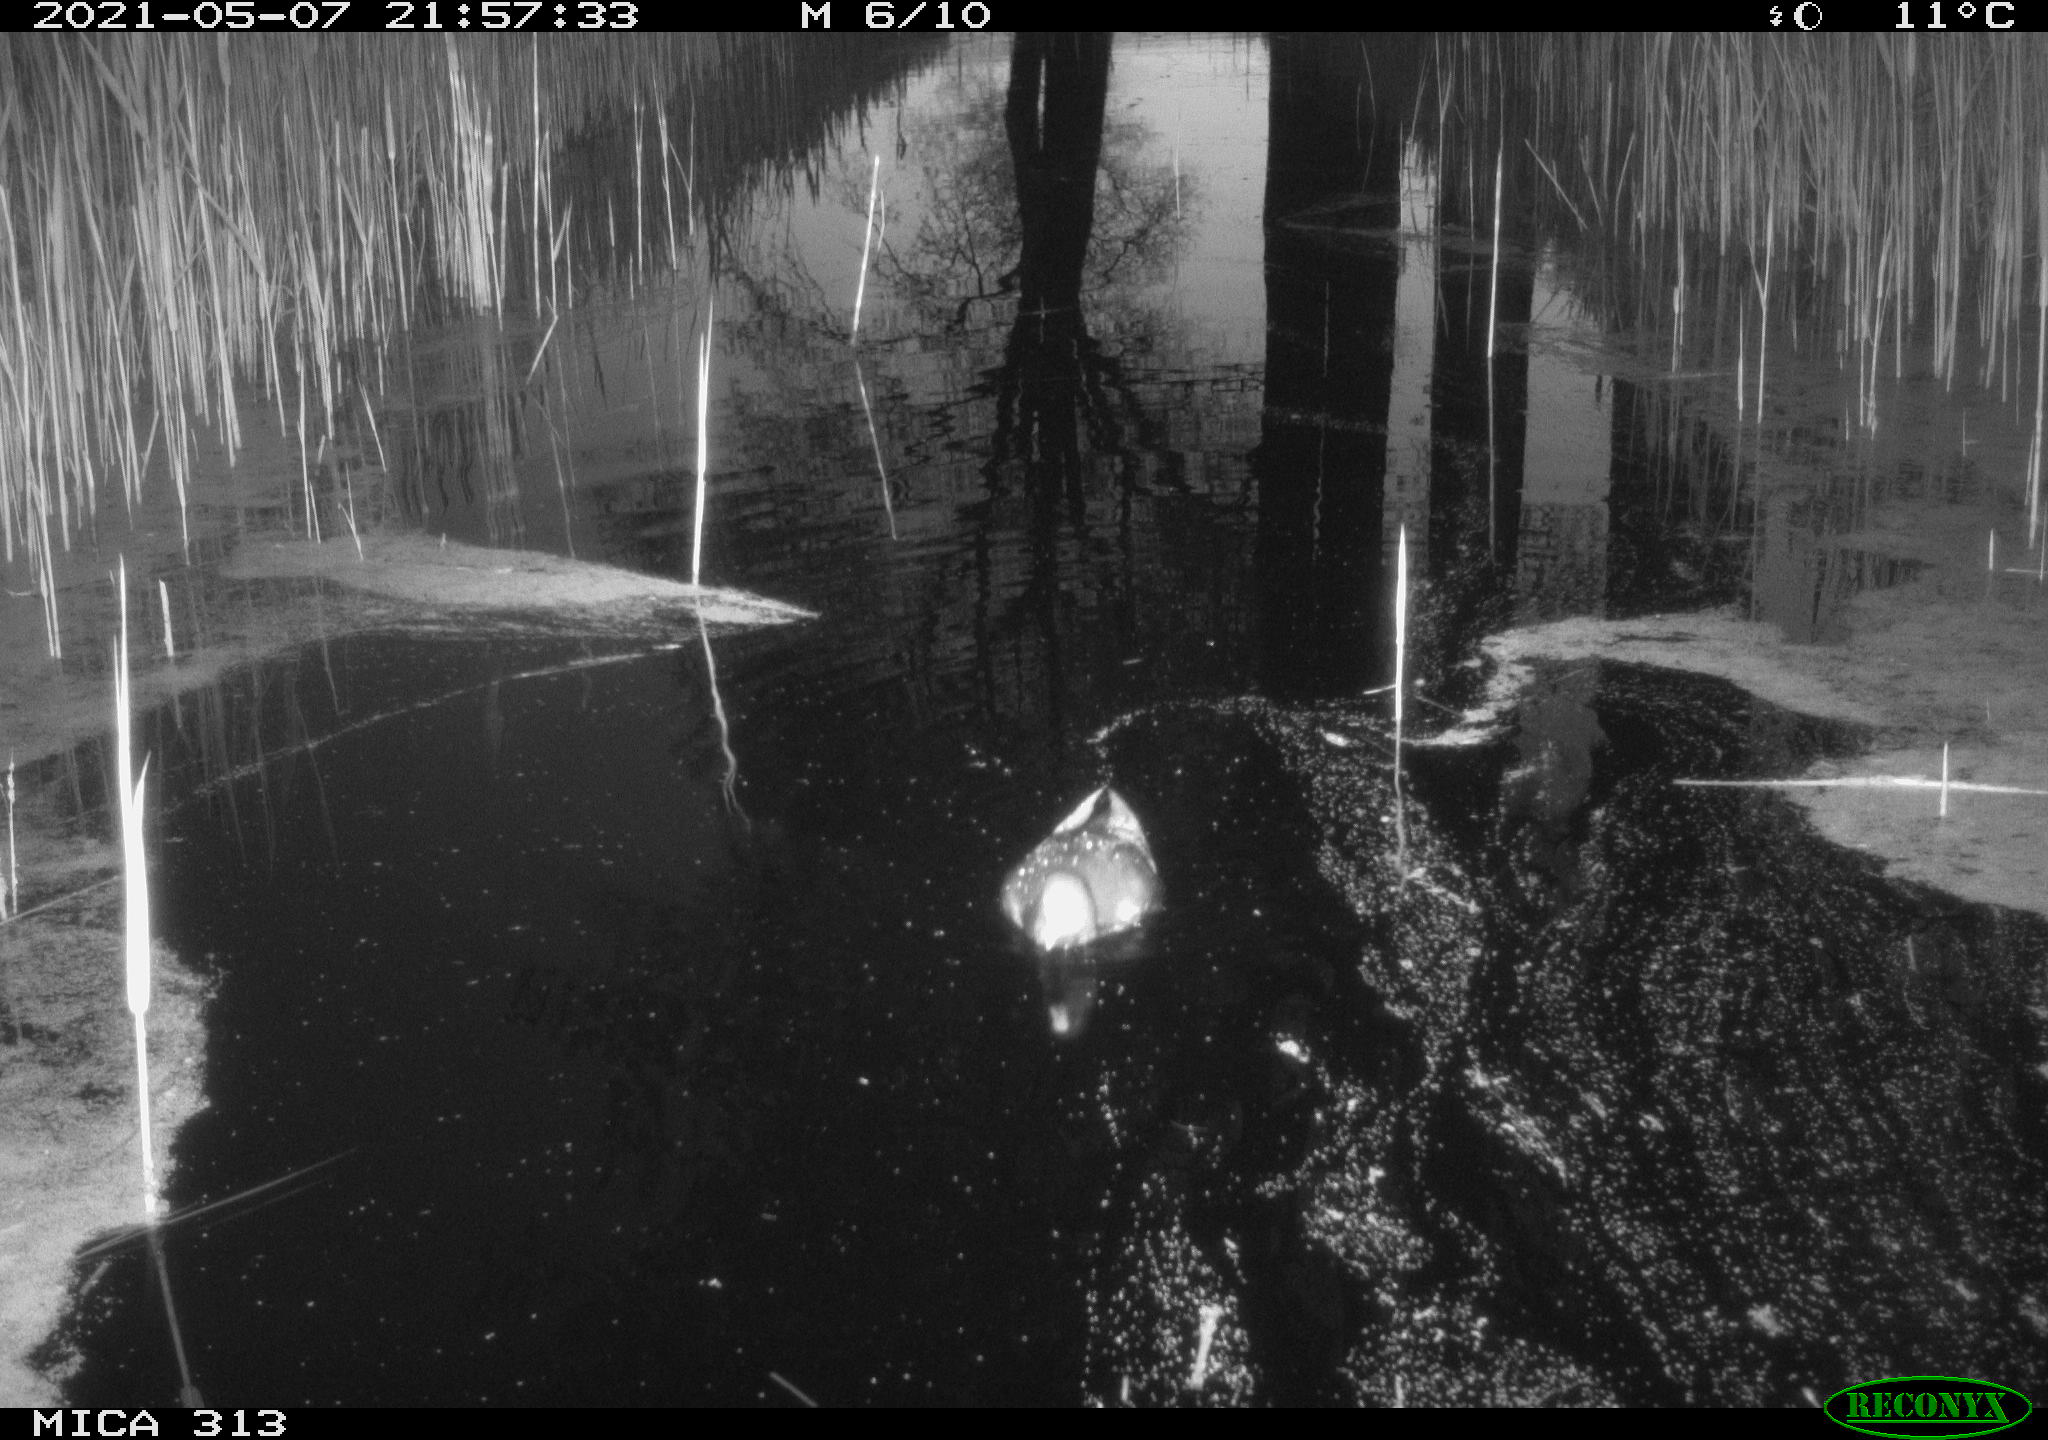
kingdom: Animalia
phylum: Chordata
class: Aves
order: Gruiformes
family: Rallidae
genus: Gallinula
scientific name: Gallinula chloropus
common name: Common moorhen
